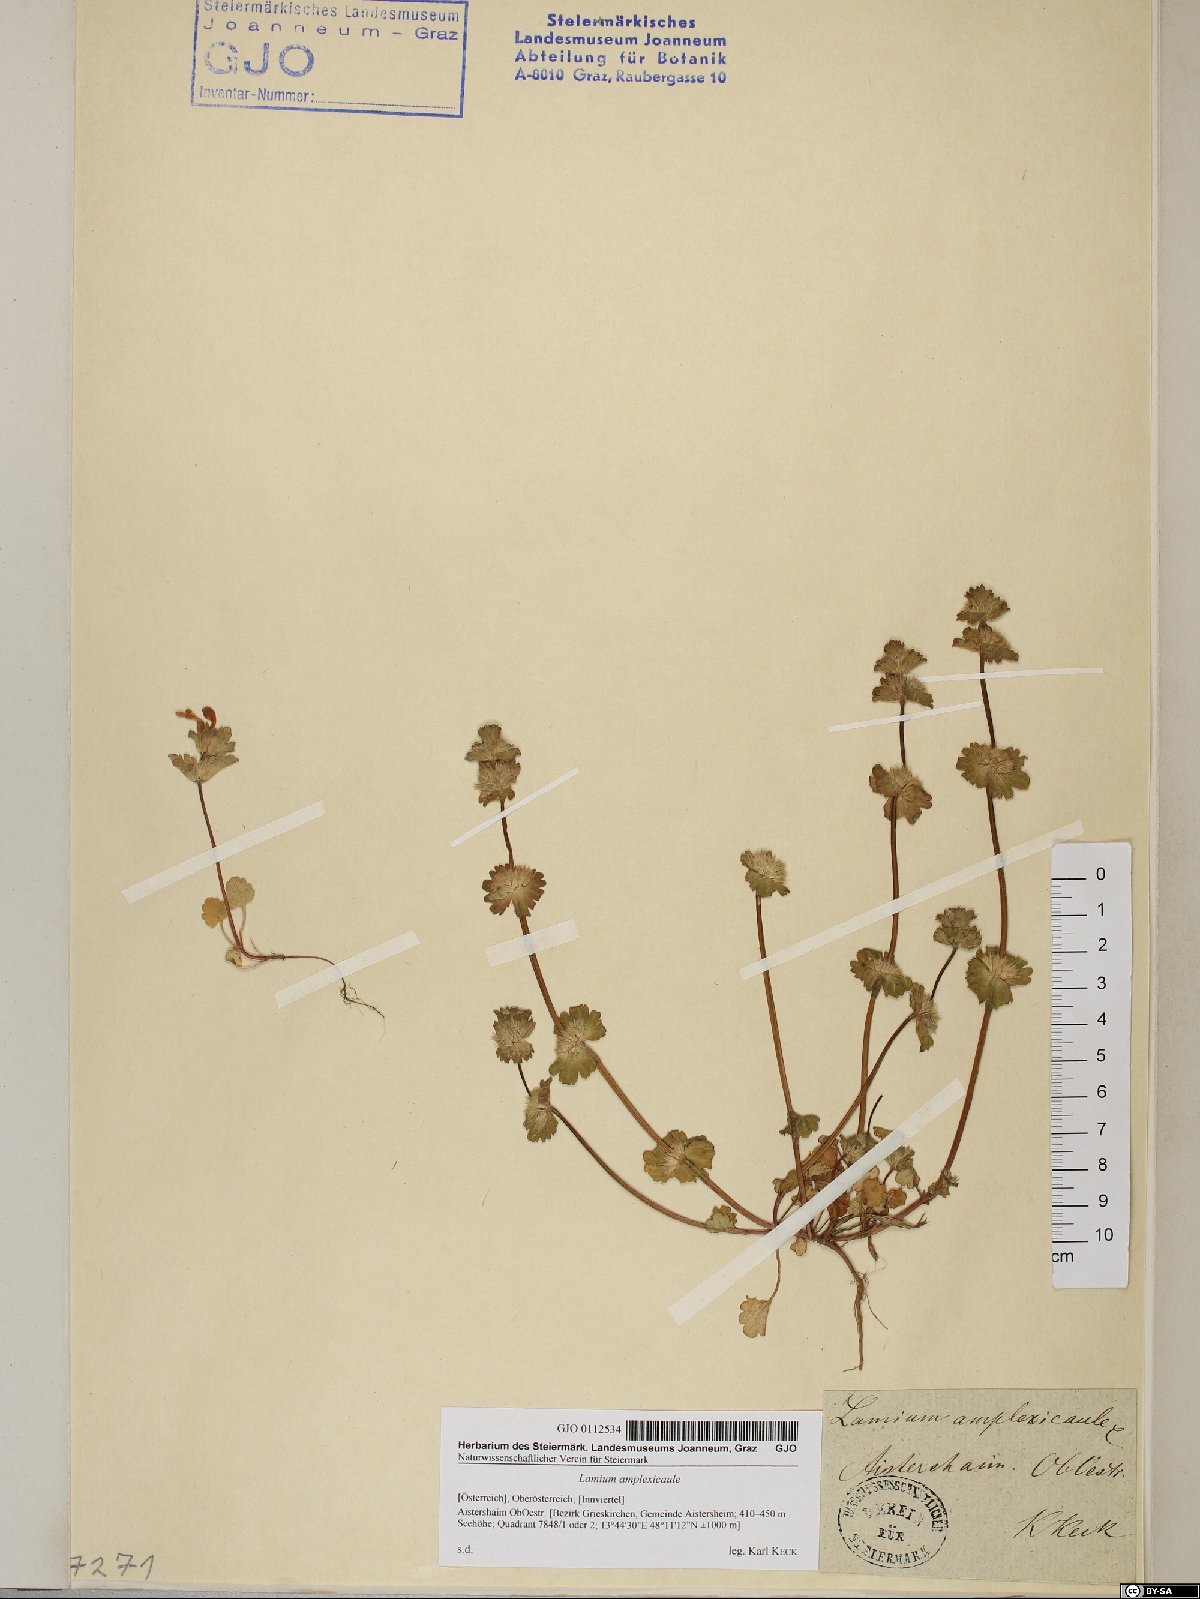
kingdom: Plantae
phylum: Tracheophyta
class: Magnoliopsida
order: Lamiales
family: Lamiaceae
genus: Lamium
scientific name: Lamium amplexicaule
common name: Henbit dead-nettle
